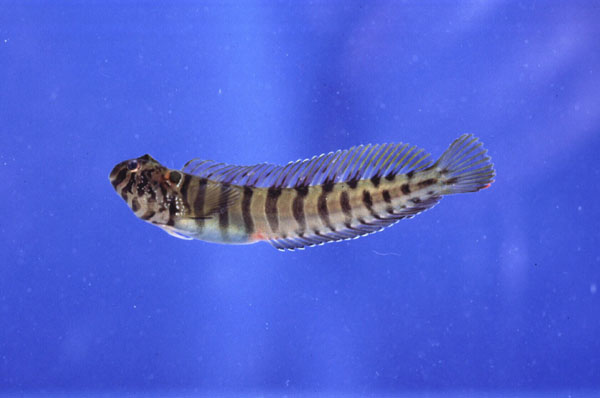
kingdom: Animalia
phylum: Chordata
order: Perciformes
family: Blenniidae
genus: Omobranchus
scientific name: Omobranchus banditus
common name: Bandit blenny
